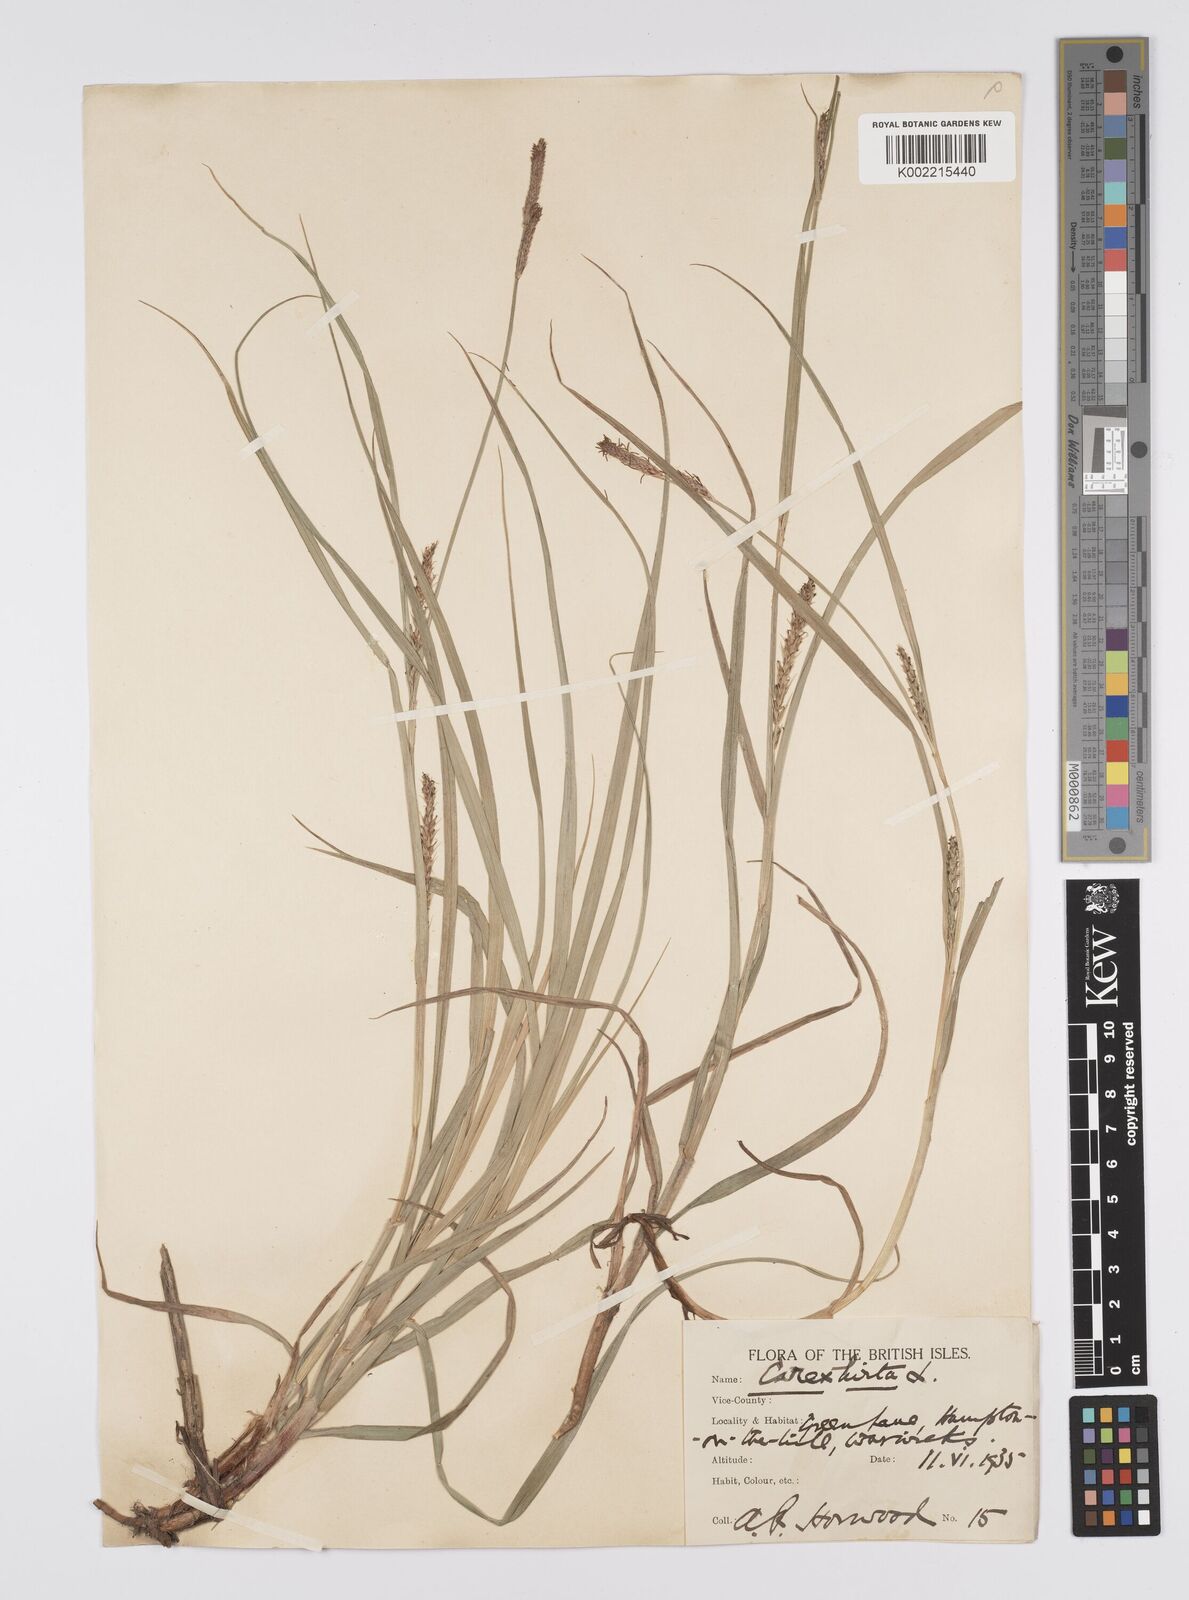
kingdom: Plantae
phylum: Tracheophyta
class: Liliopsida
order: Poales
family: Cyperaceae
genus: Carex
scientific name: Carex hirta
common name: Hairy sedge
